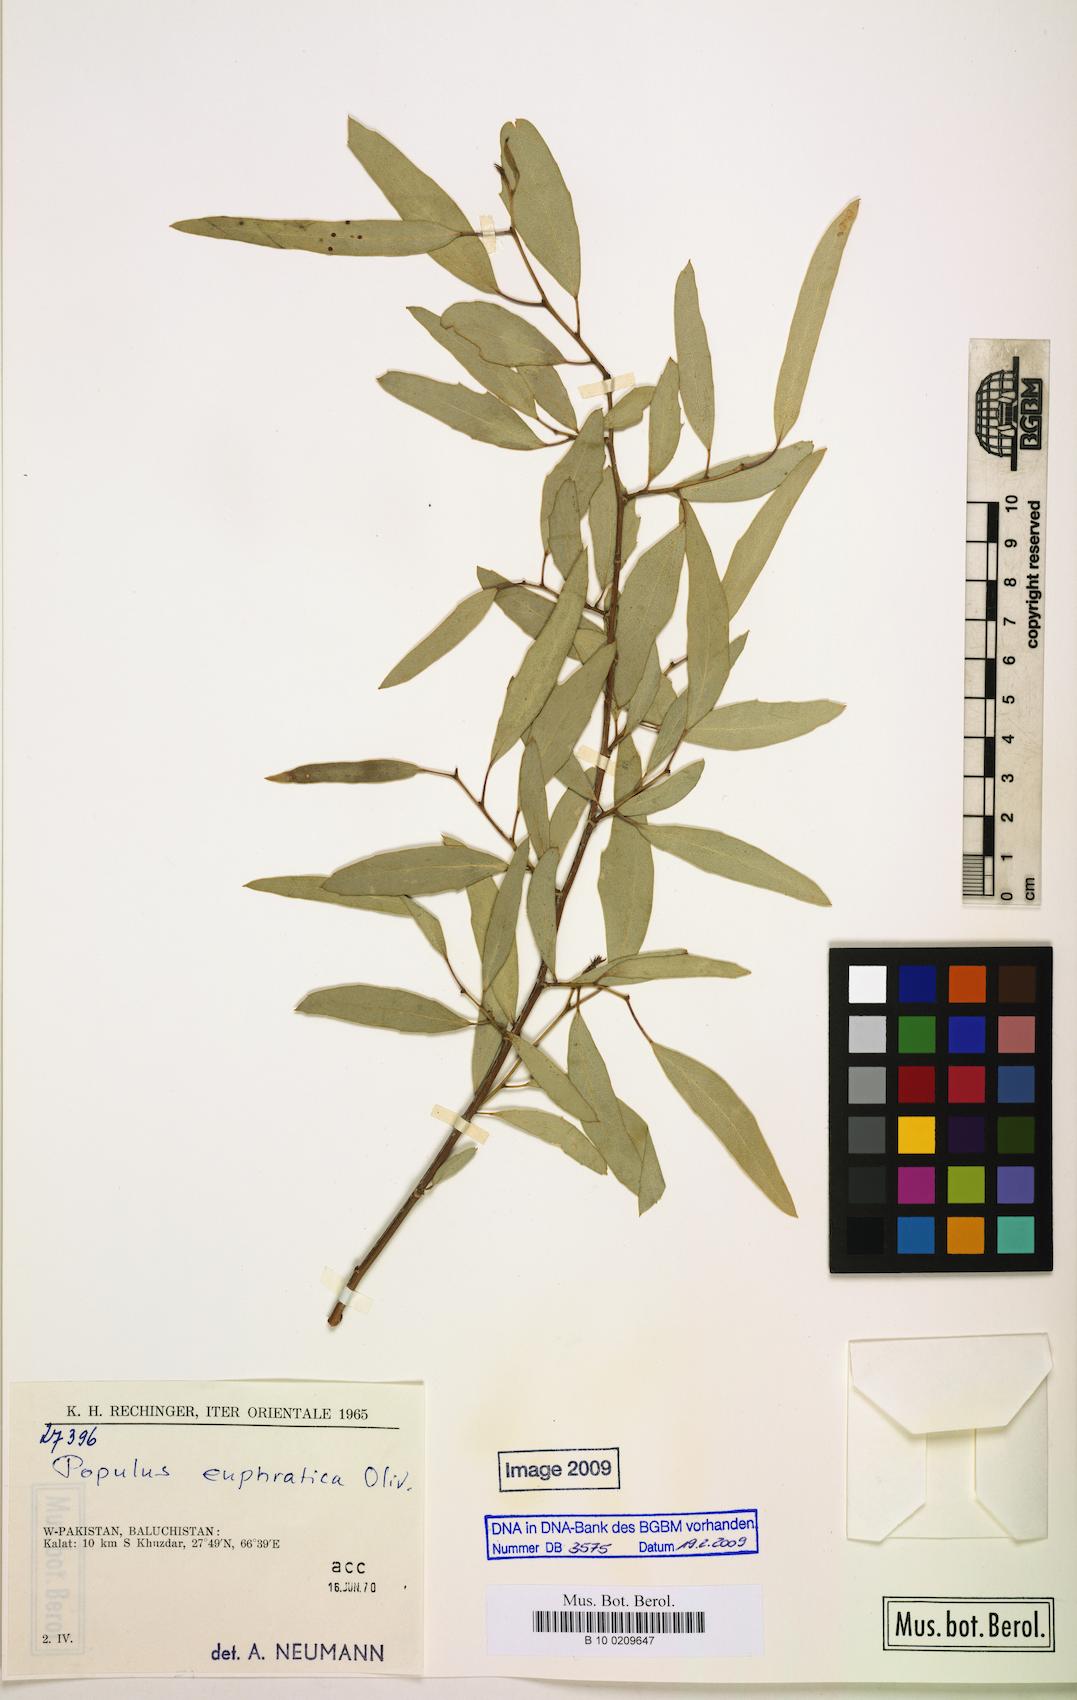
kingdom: Plantae
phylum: Tracheophyta
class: Magnoliopsida
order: Malpighiales
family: Salicaceae
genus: Populus
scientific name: Populus euphratica
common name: Euphrates poplar
